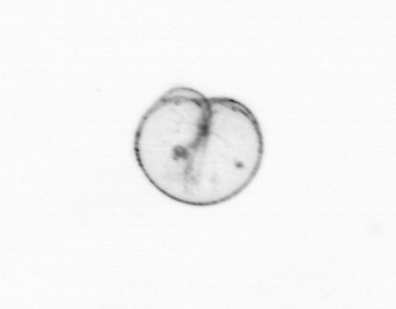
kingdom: Chromista
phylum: Myzozoa
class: Dinophyceae
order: Noctilucales
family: Noctilucaceae
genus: Noctiluca
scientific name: Noctiluca scintillans
